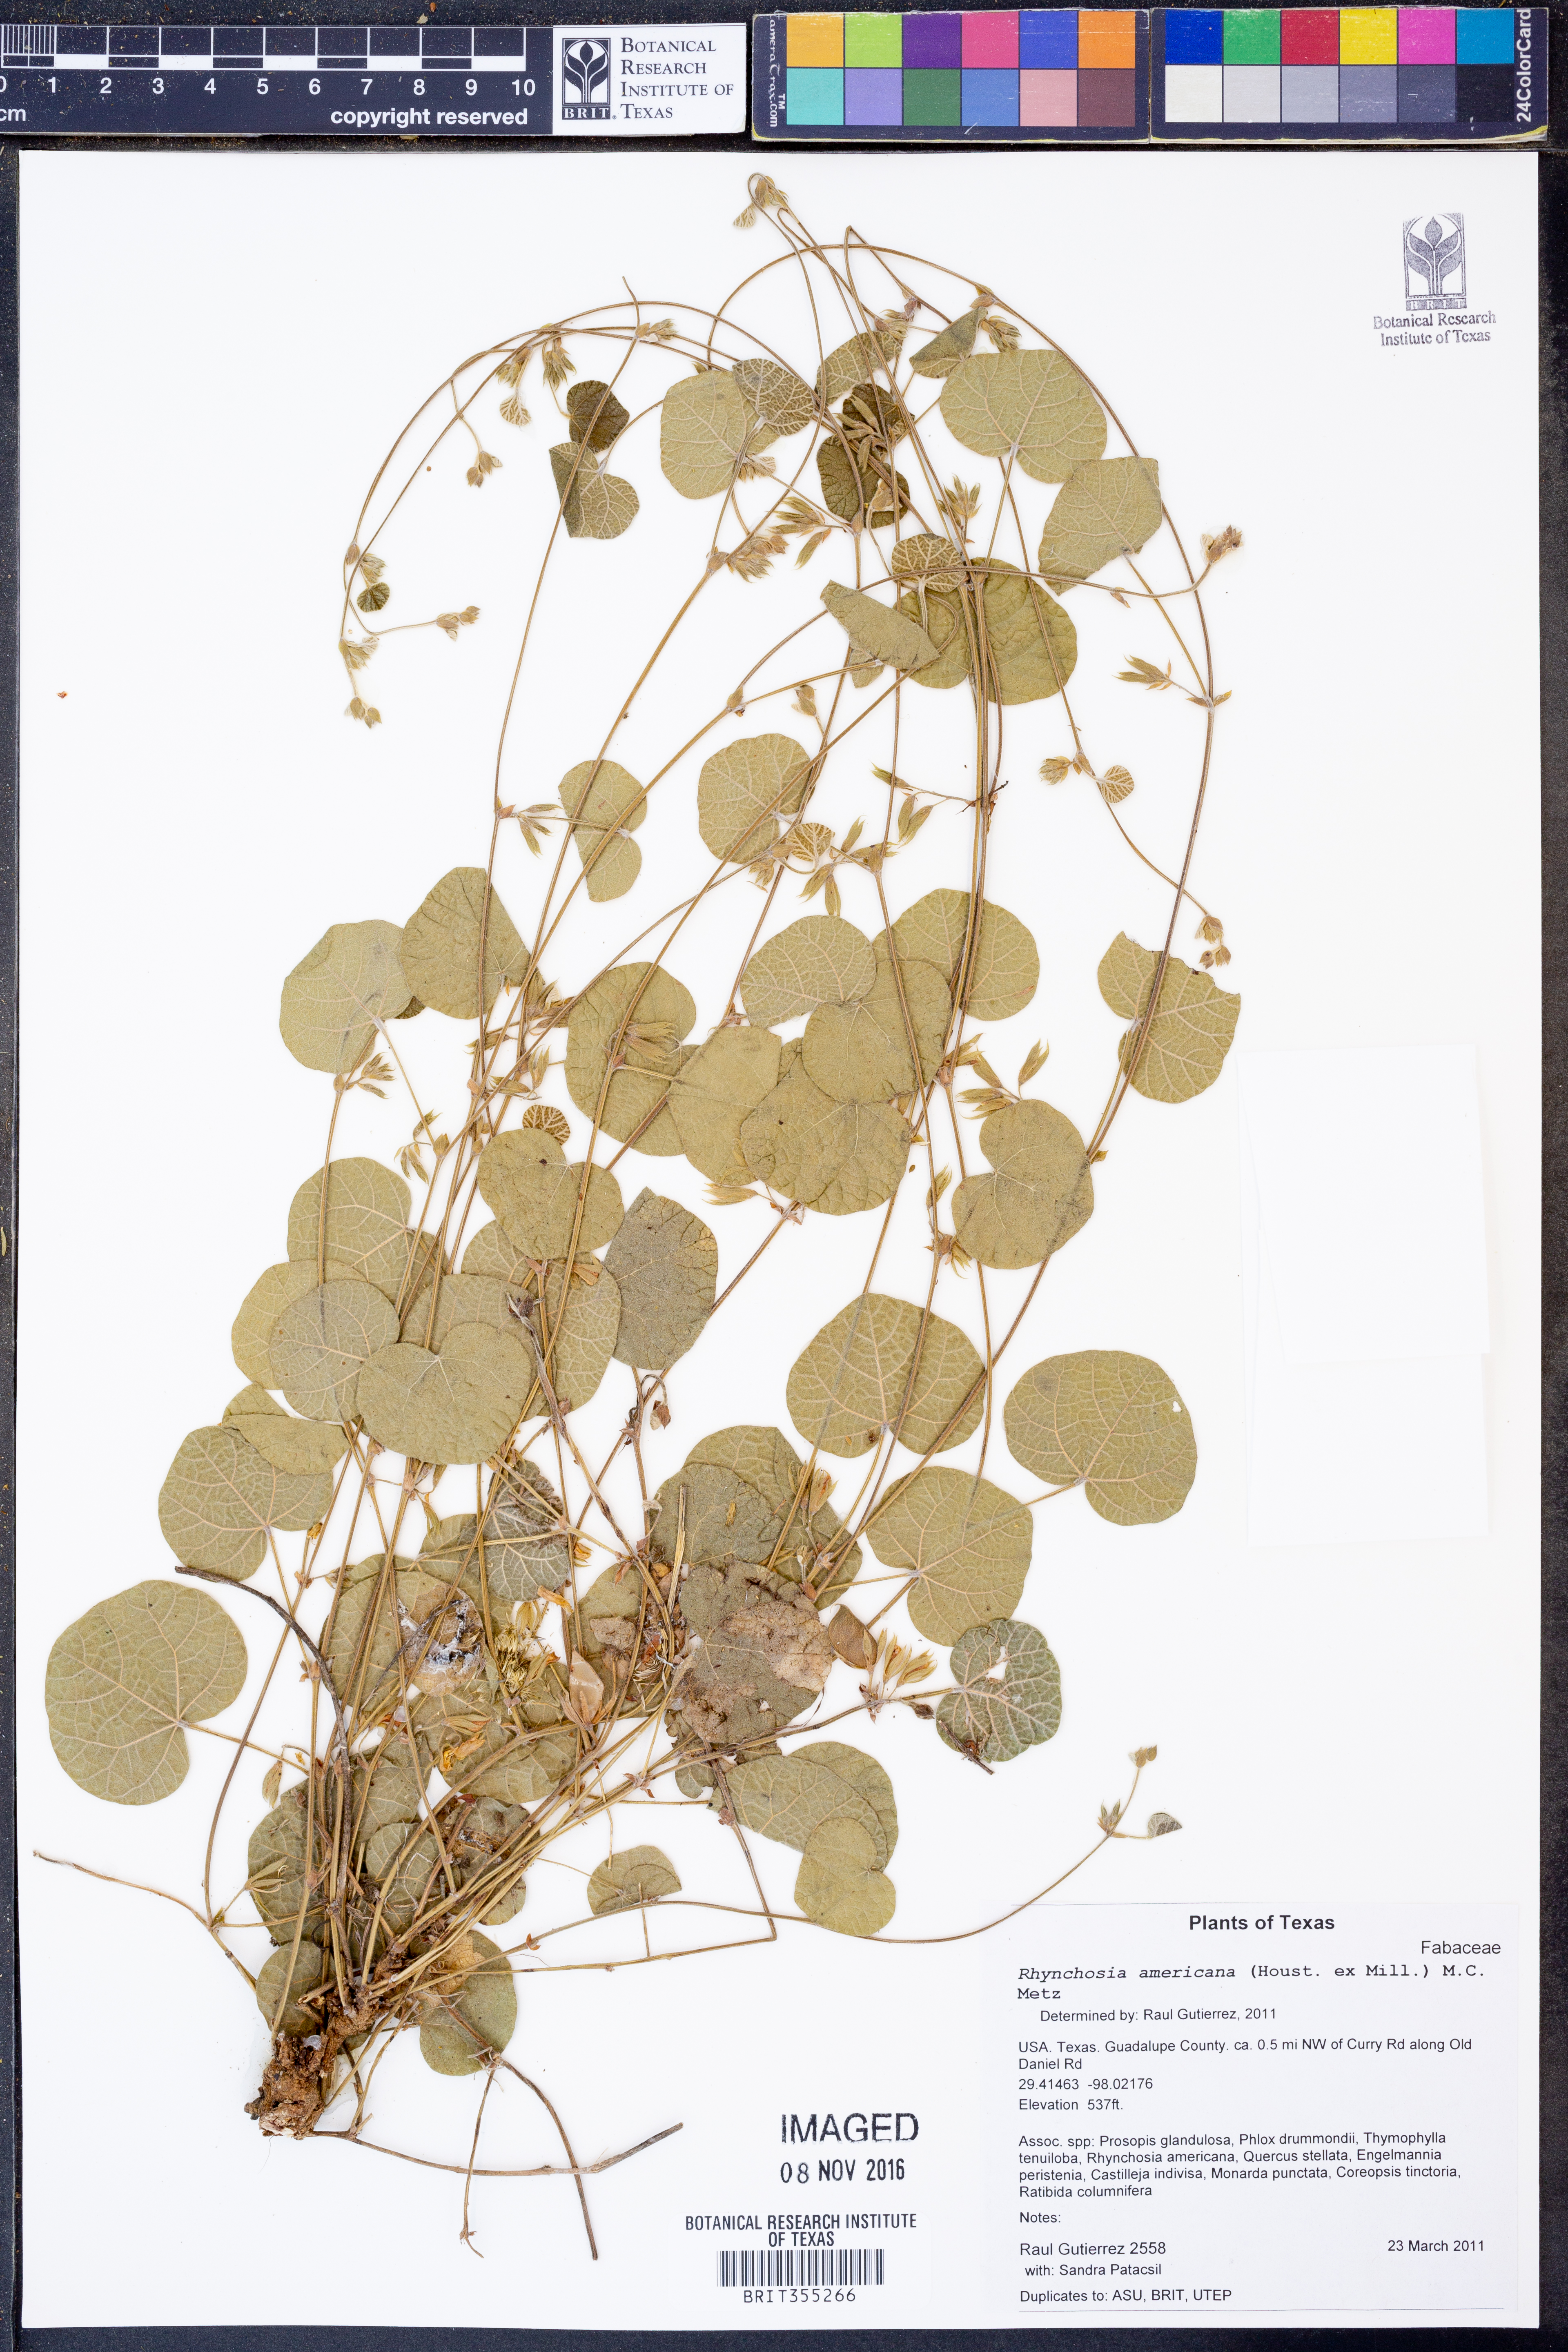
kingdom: Plantae
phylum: Tracheophyta
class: Magnoliopsida
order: Fabales
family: Fabaceae
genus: Rhynchosia
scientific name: Rhynchosia americana
